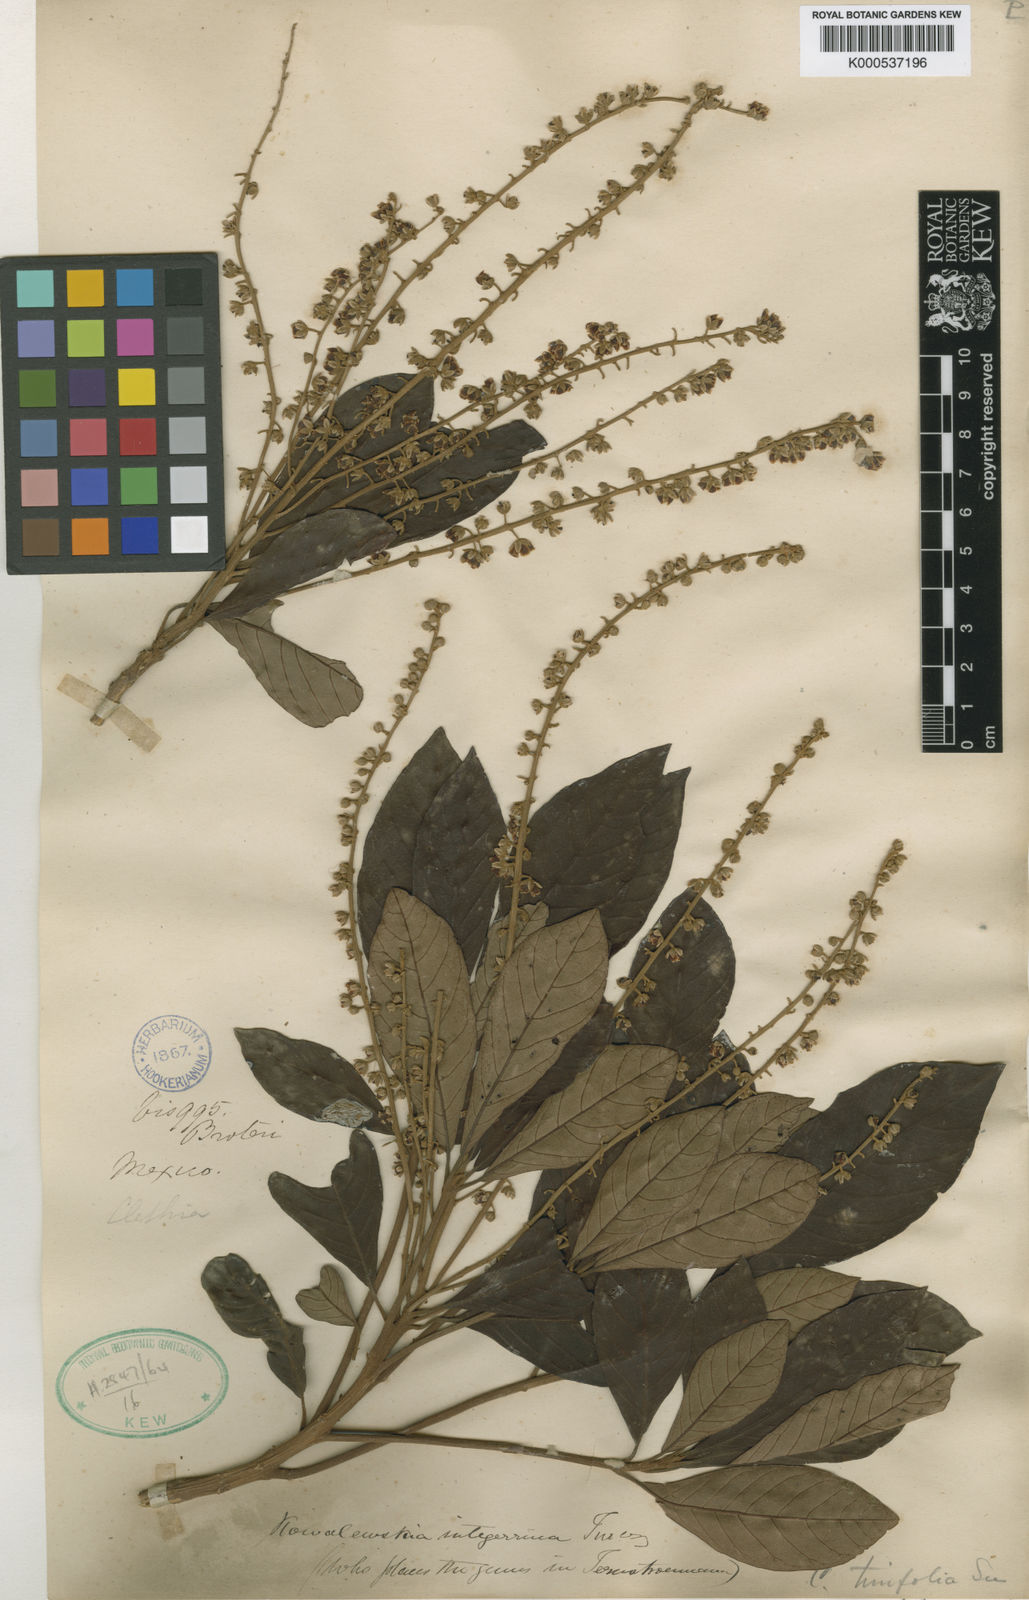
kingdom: Plantae
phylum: Tracheophyta
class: Magnoliopsida
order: Ericales
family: Clethraceae
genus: Clethra
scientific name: Clethra occidentalis
